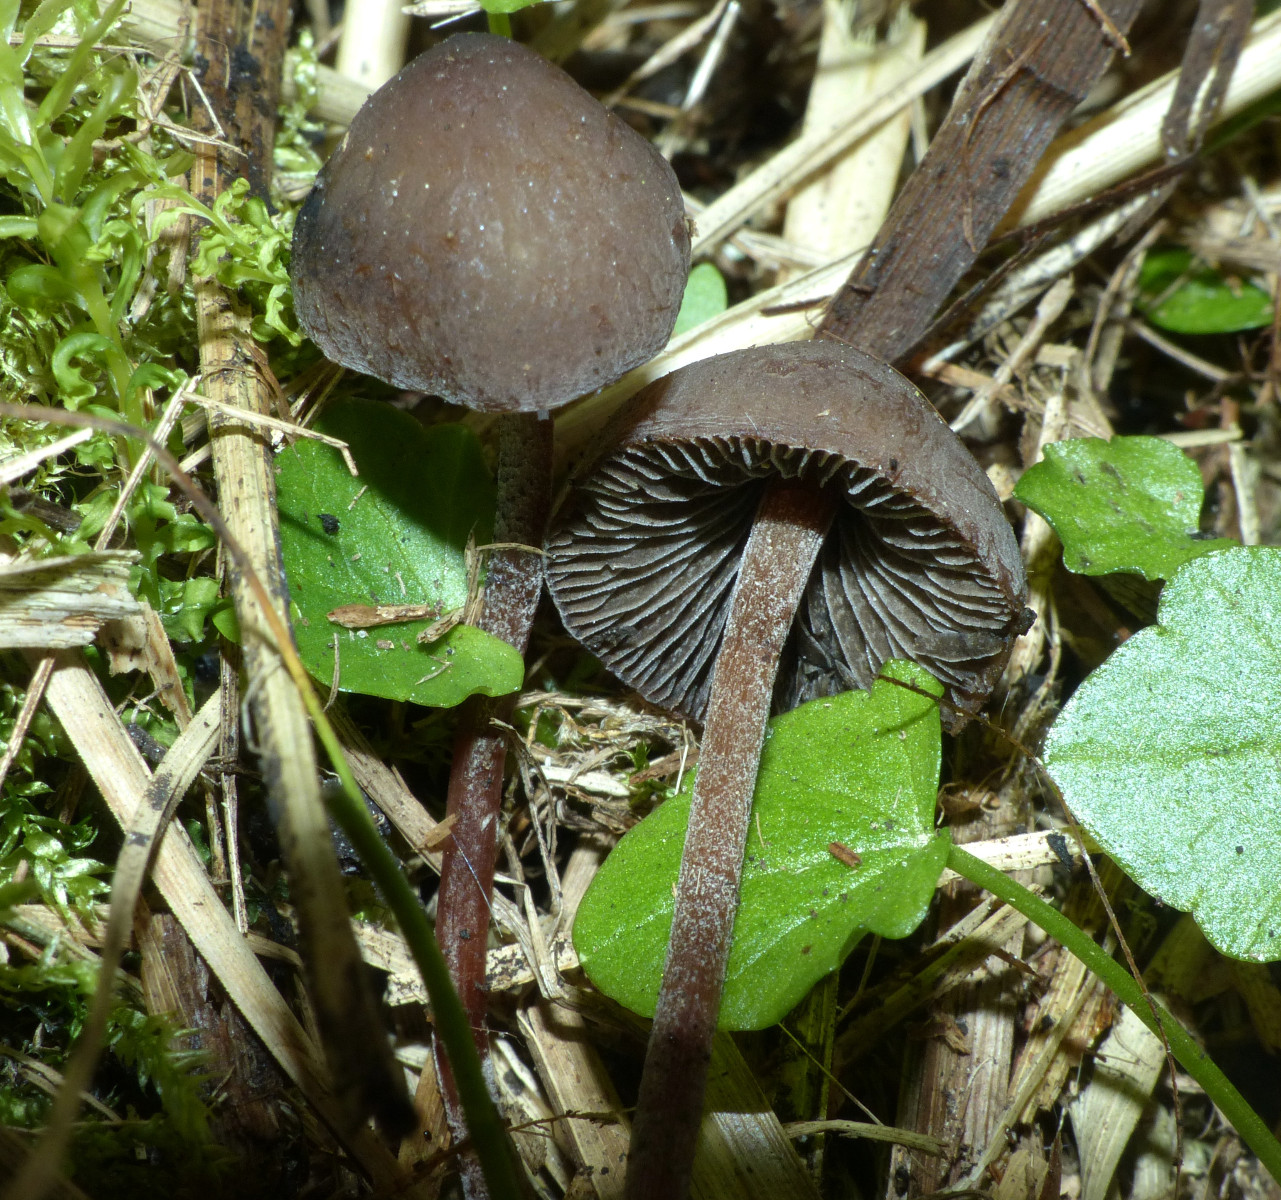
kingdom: Fungi
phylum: Basidiomycota
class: Agaricomycetes
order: Agaricales
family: Bolbitiaceae
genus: Panaeolus
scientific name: Panaeolus acuminatus
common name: høj glanshat
